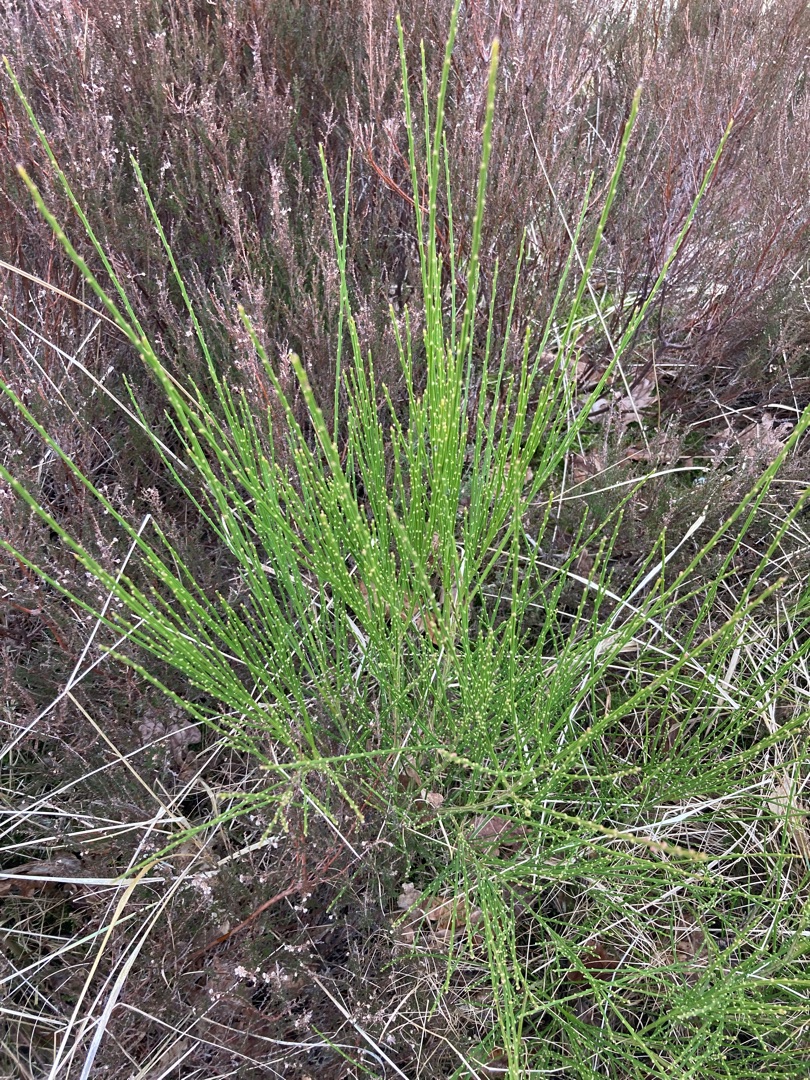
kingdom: Plantae
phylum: Tracheophyta
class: Magnoliopsida
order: Fabales
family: Fabaceae
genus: Cytisus
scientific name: Cytisus scoparius
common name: Almindelig gyvel
